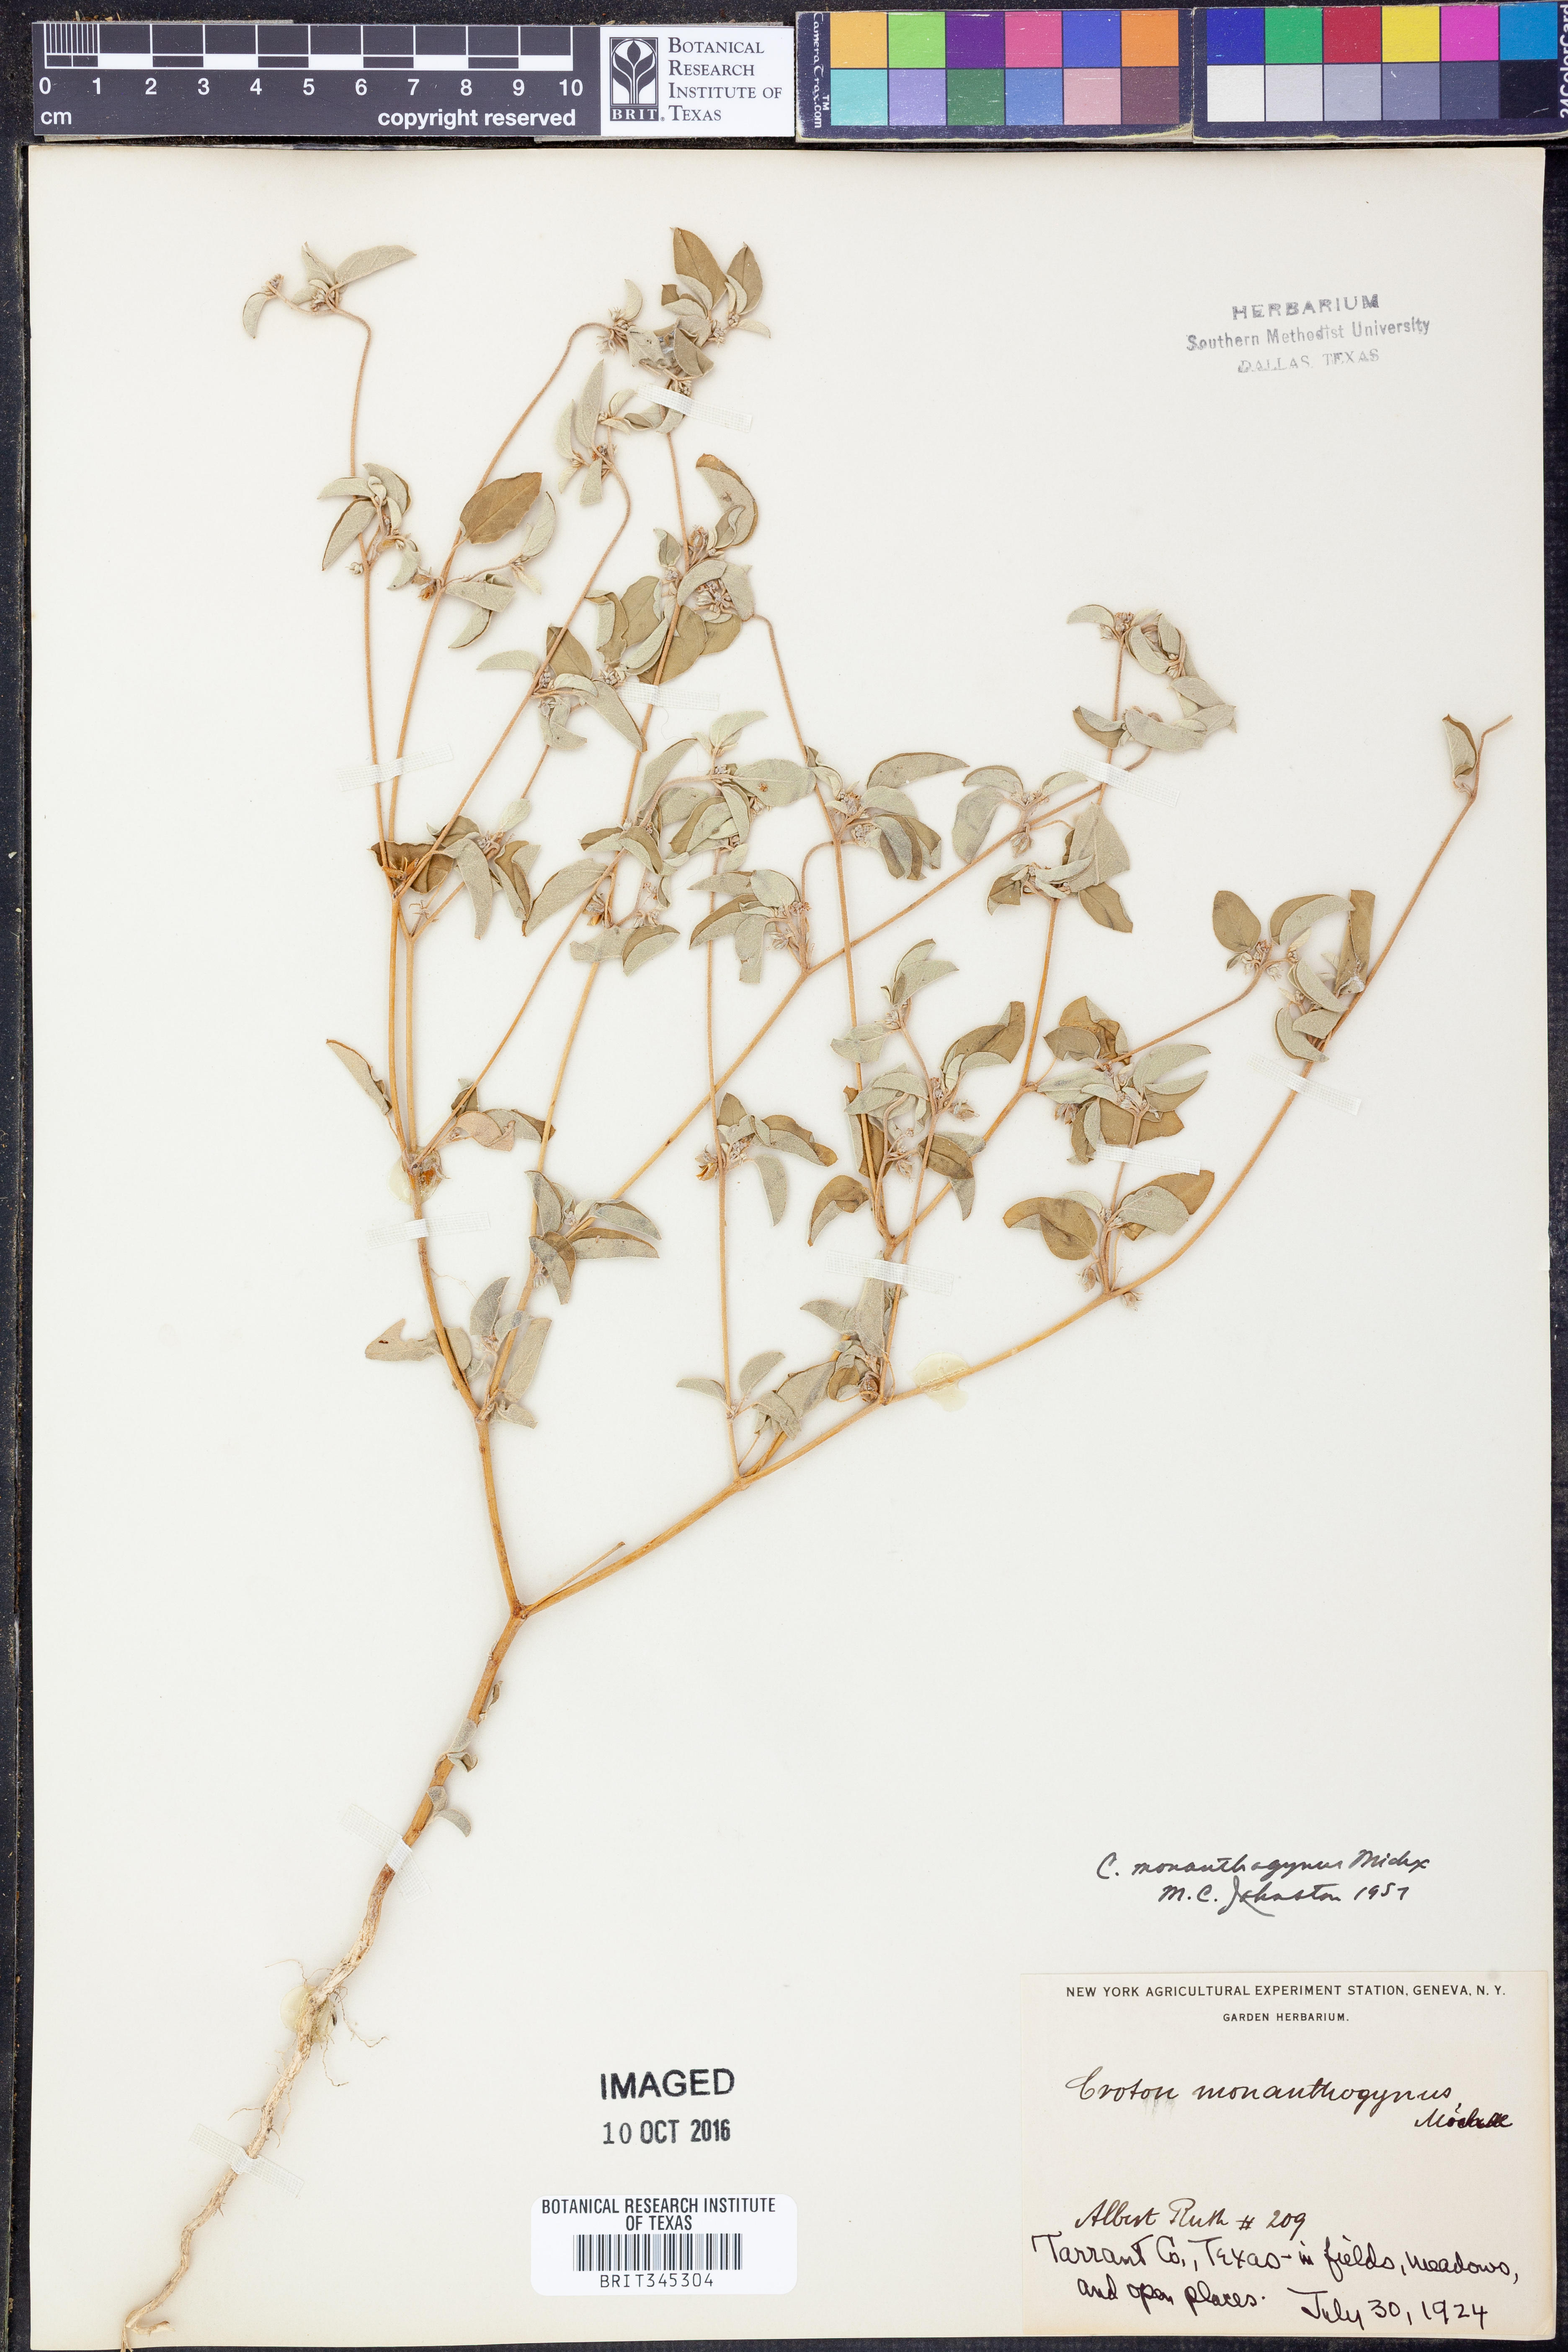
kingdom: Plantae
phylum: Tracheophyta
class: Magnoliopsida
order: Malpighiales
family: Euphorbiaceae
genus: Croton
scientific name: Croton monanthogynus
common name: One-seed croton
